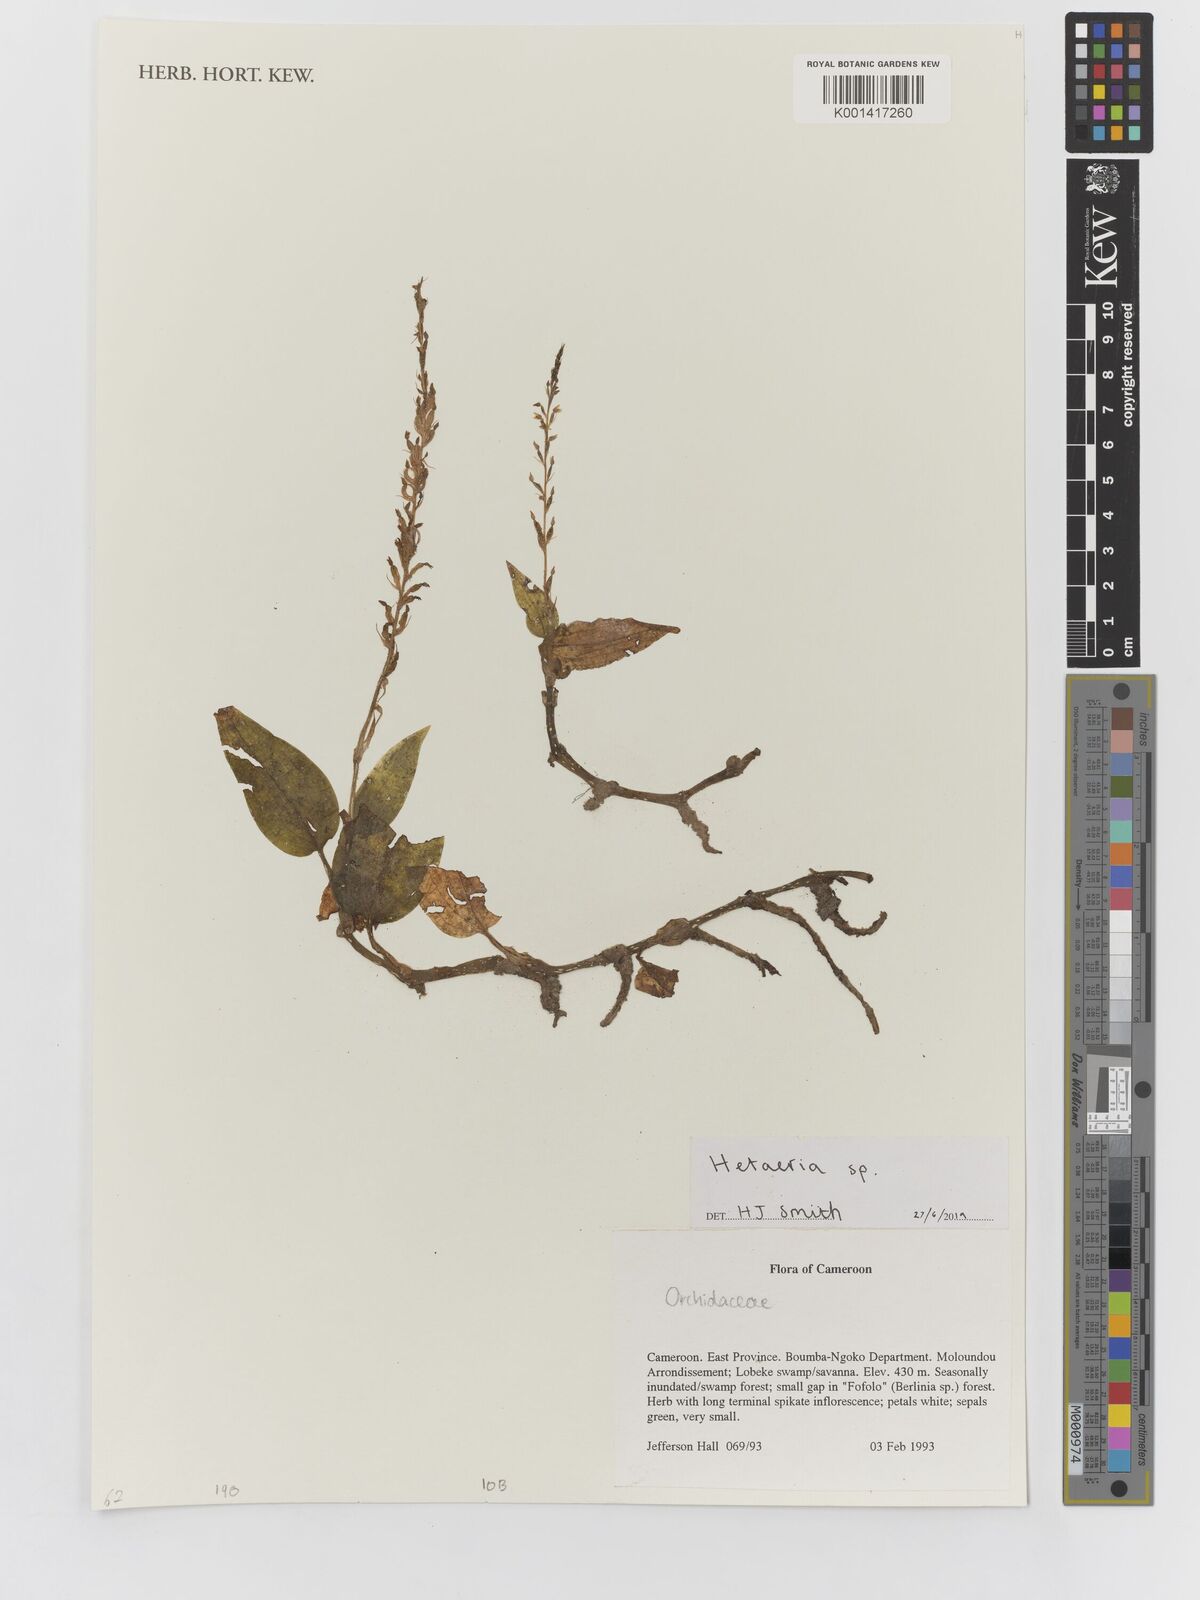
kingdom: Plantae
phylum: Tracheophyta
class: Liliopsida
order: Asparagales
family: Orchidaceae
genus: Hetaeria
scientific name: Hetaeria
